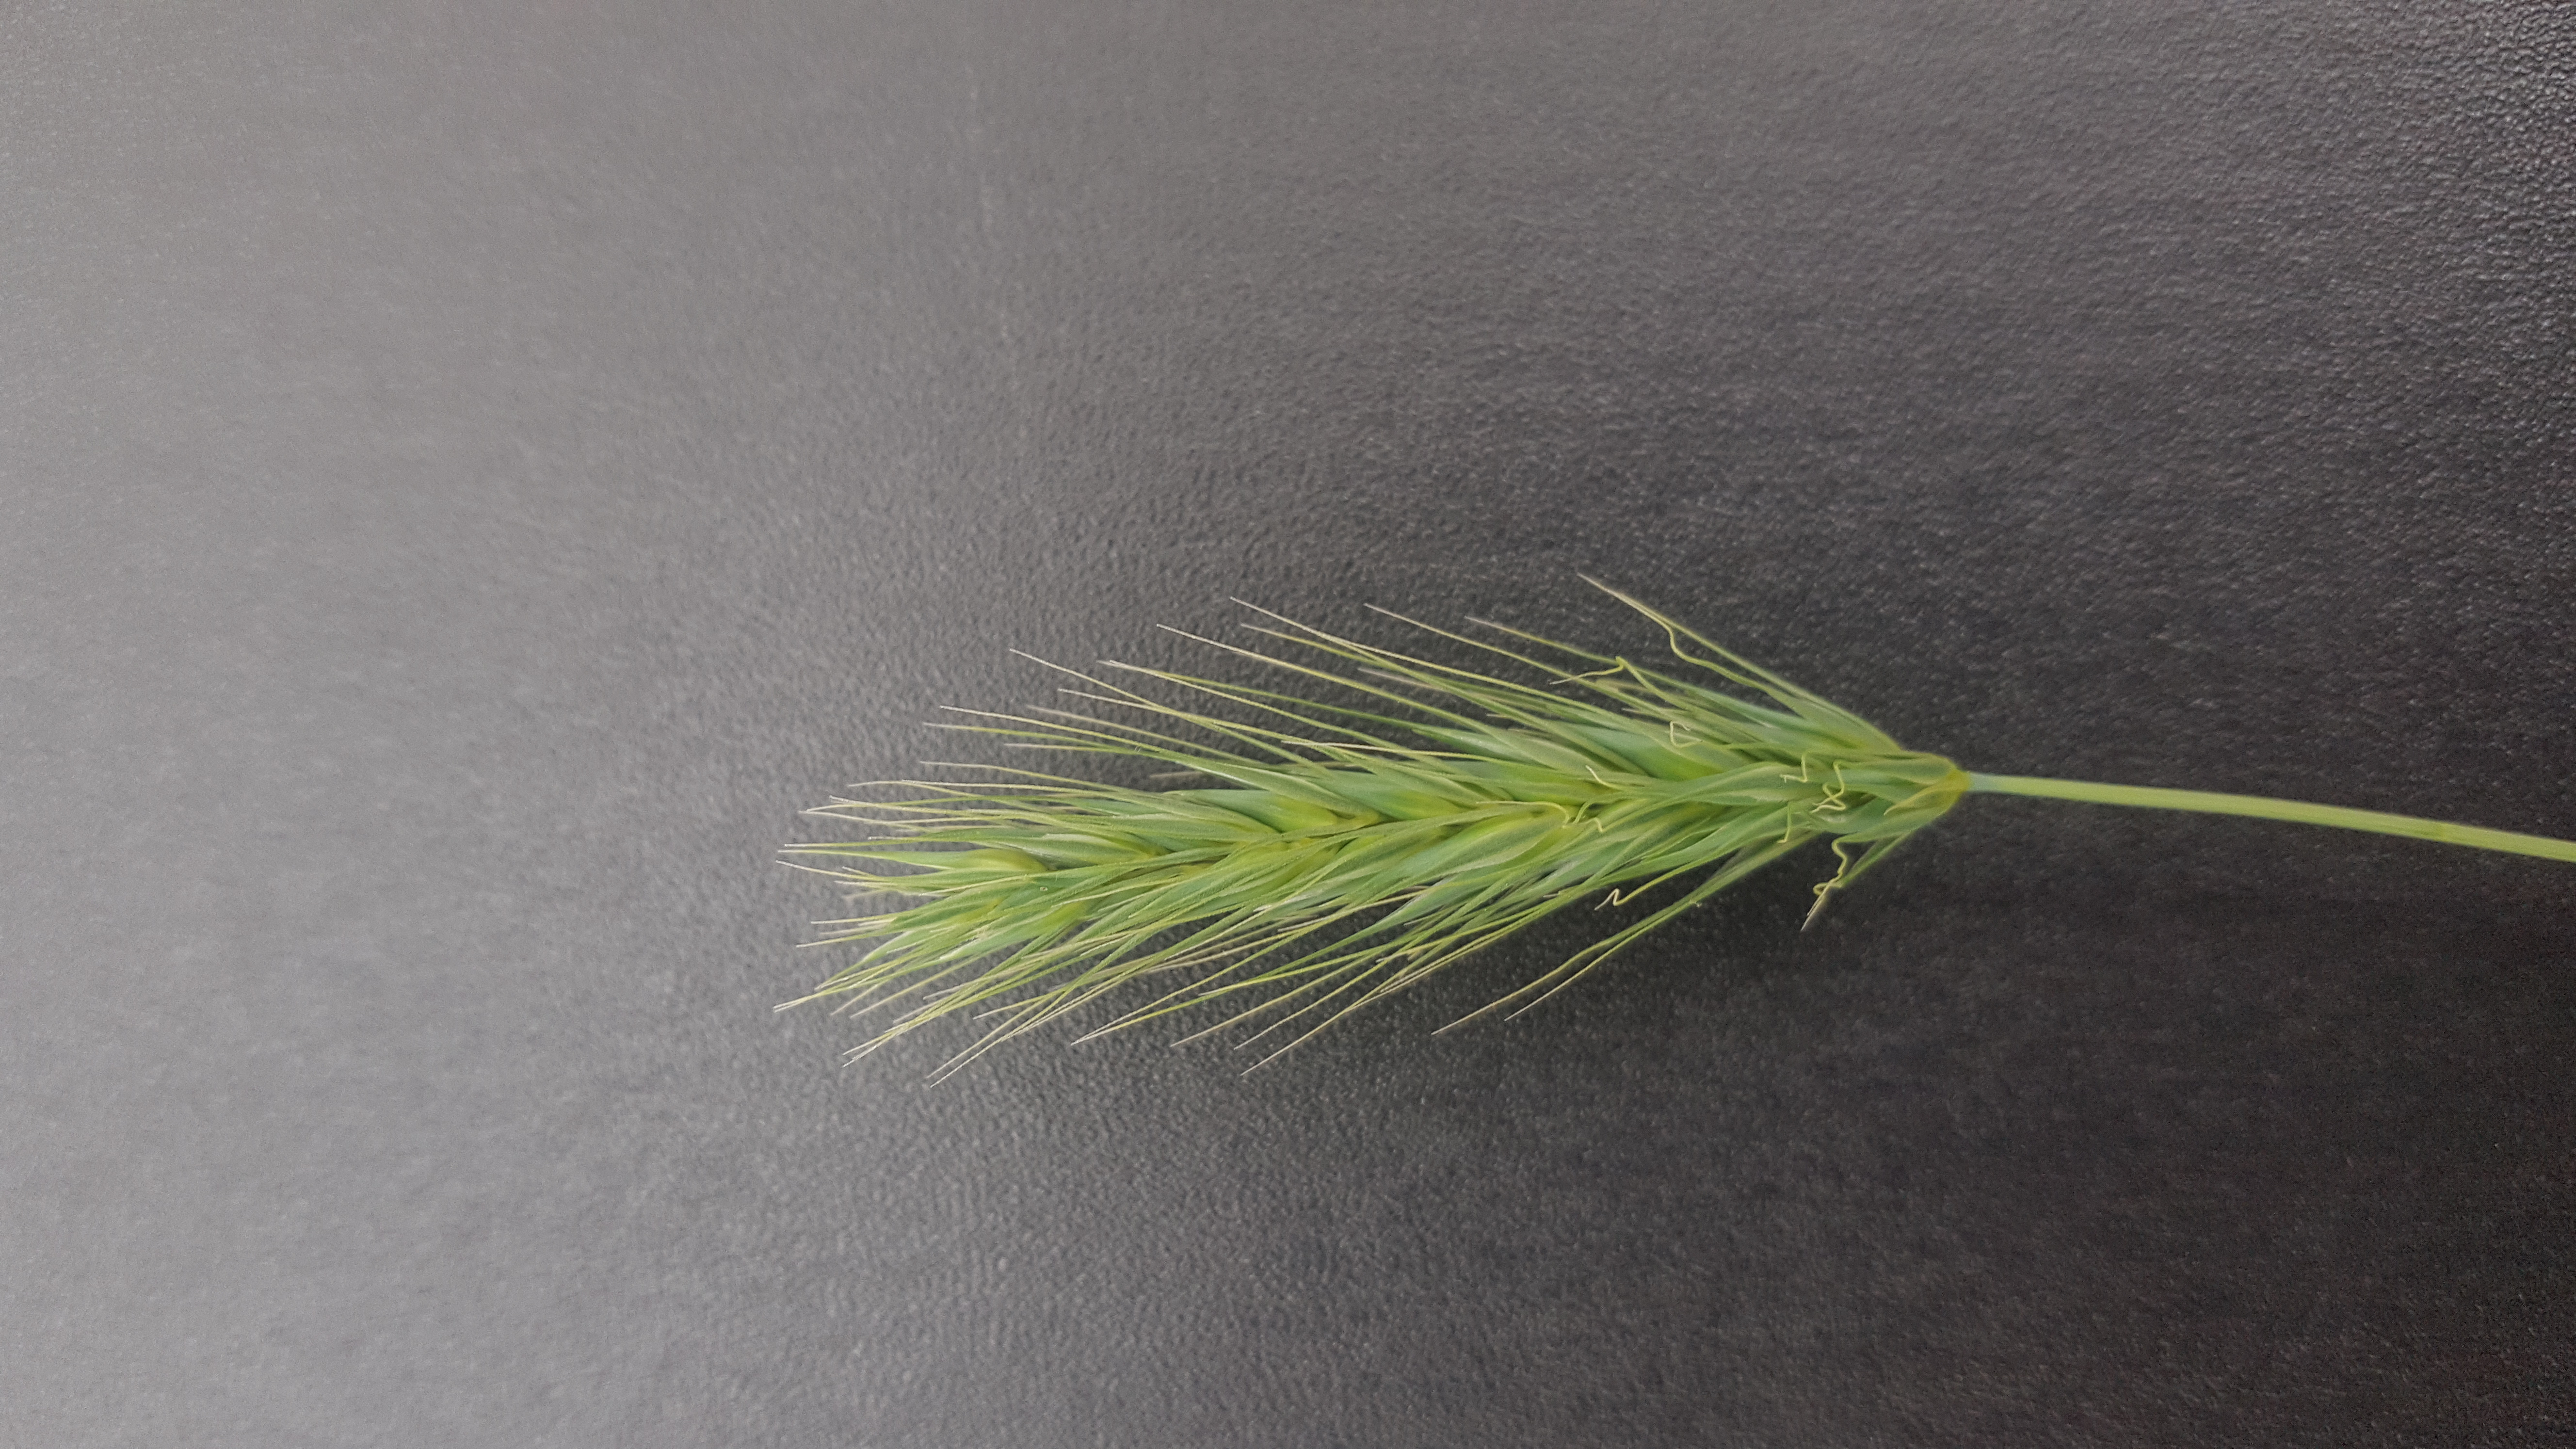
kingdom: Plantae
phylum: Tracheophyta
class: Liliopsida
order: Poales
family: Poaceae
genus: Hordeum
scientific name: Hordeum euclaston
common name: Argentine barley
